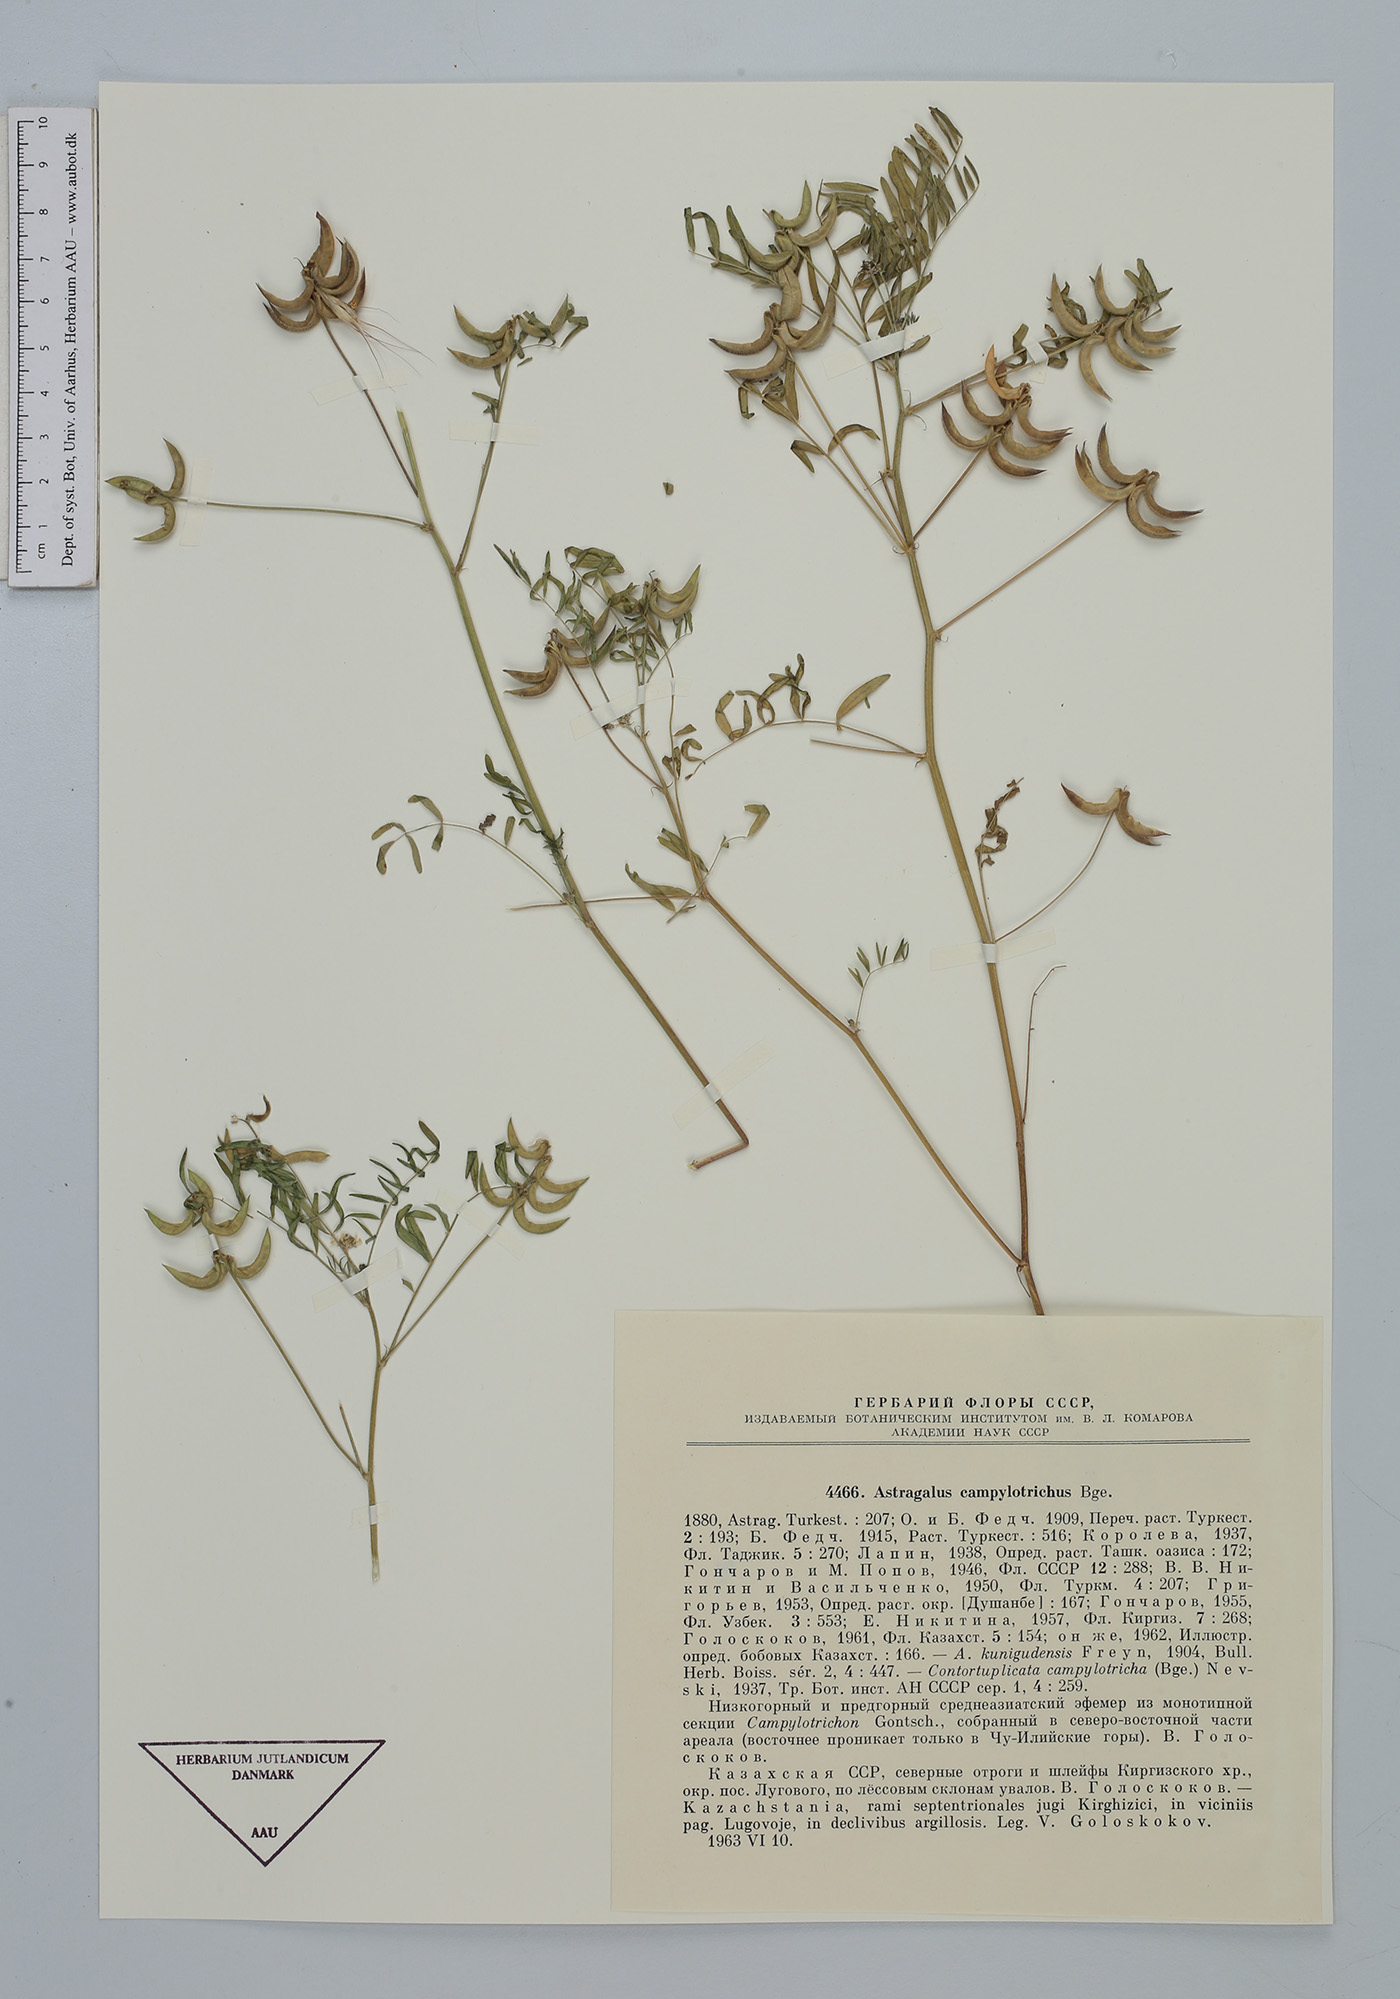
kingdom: Plantae
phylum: Tracheophyta
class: Magnoliopsida
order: Fabales
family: Fabaceae
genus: Astragalus
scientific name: Astragalus campylotrichus
